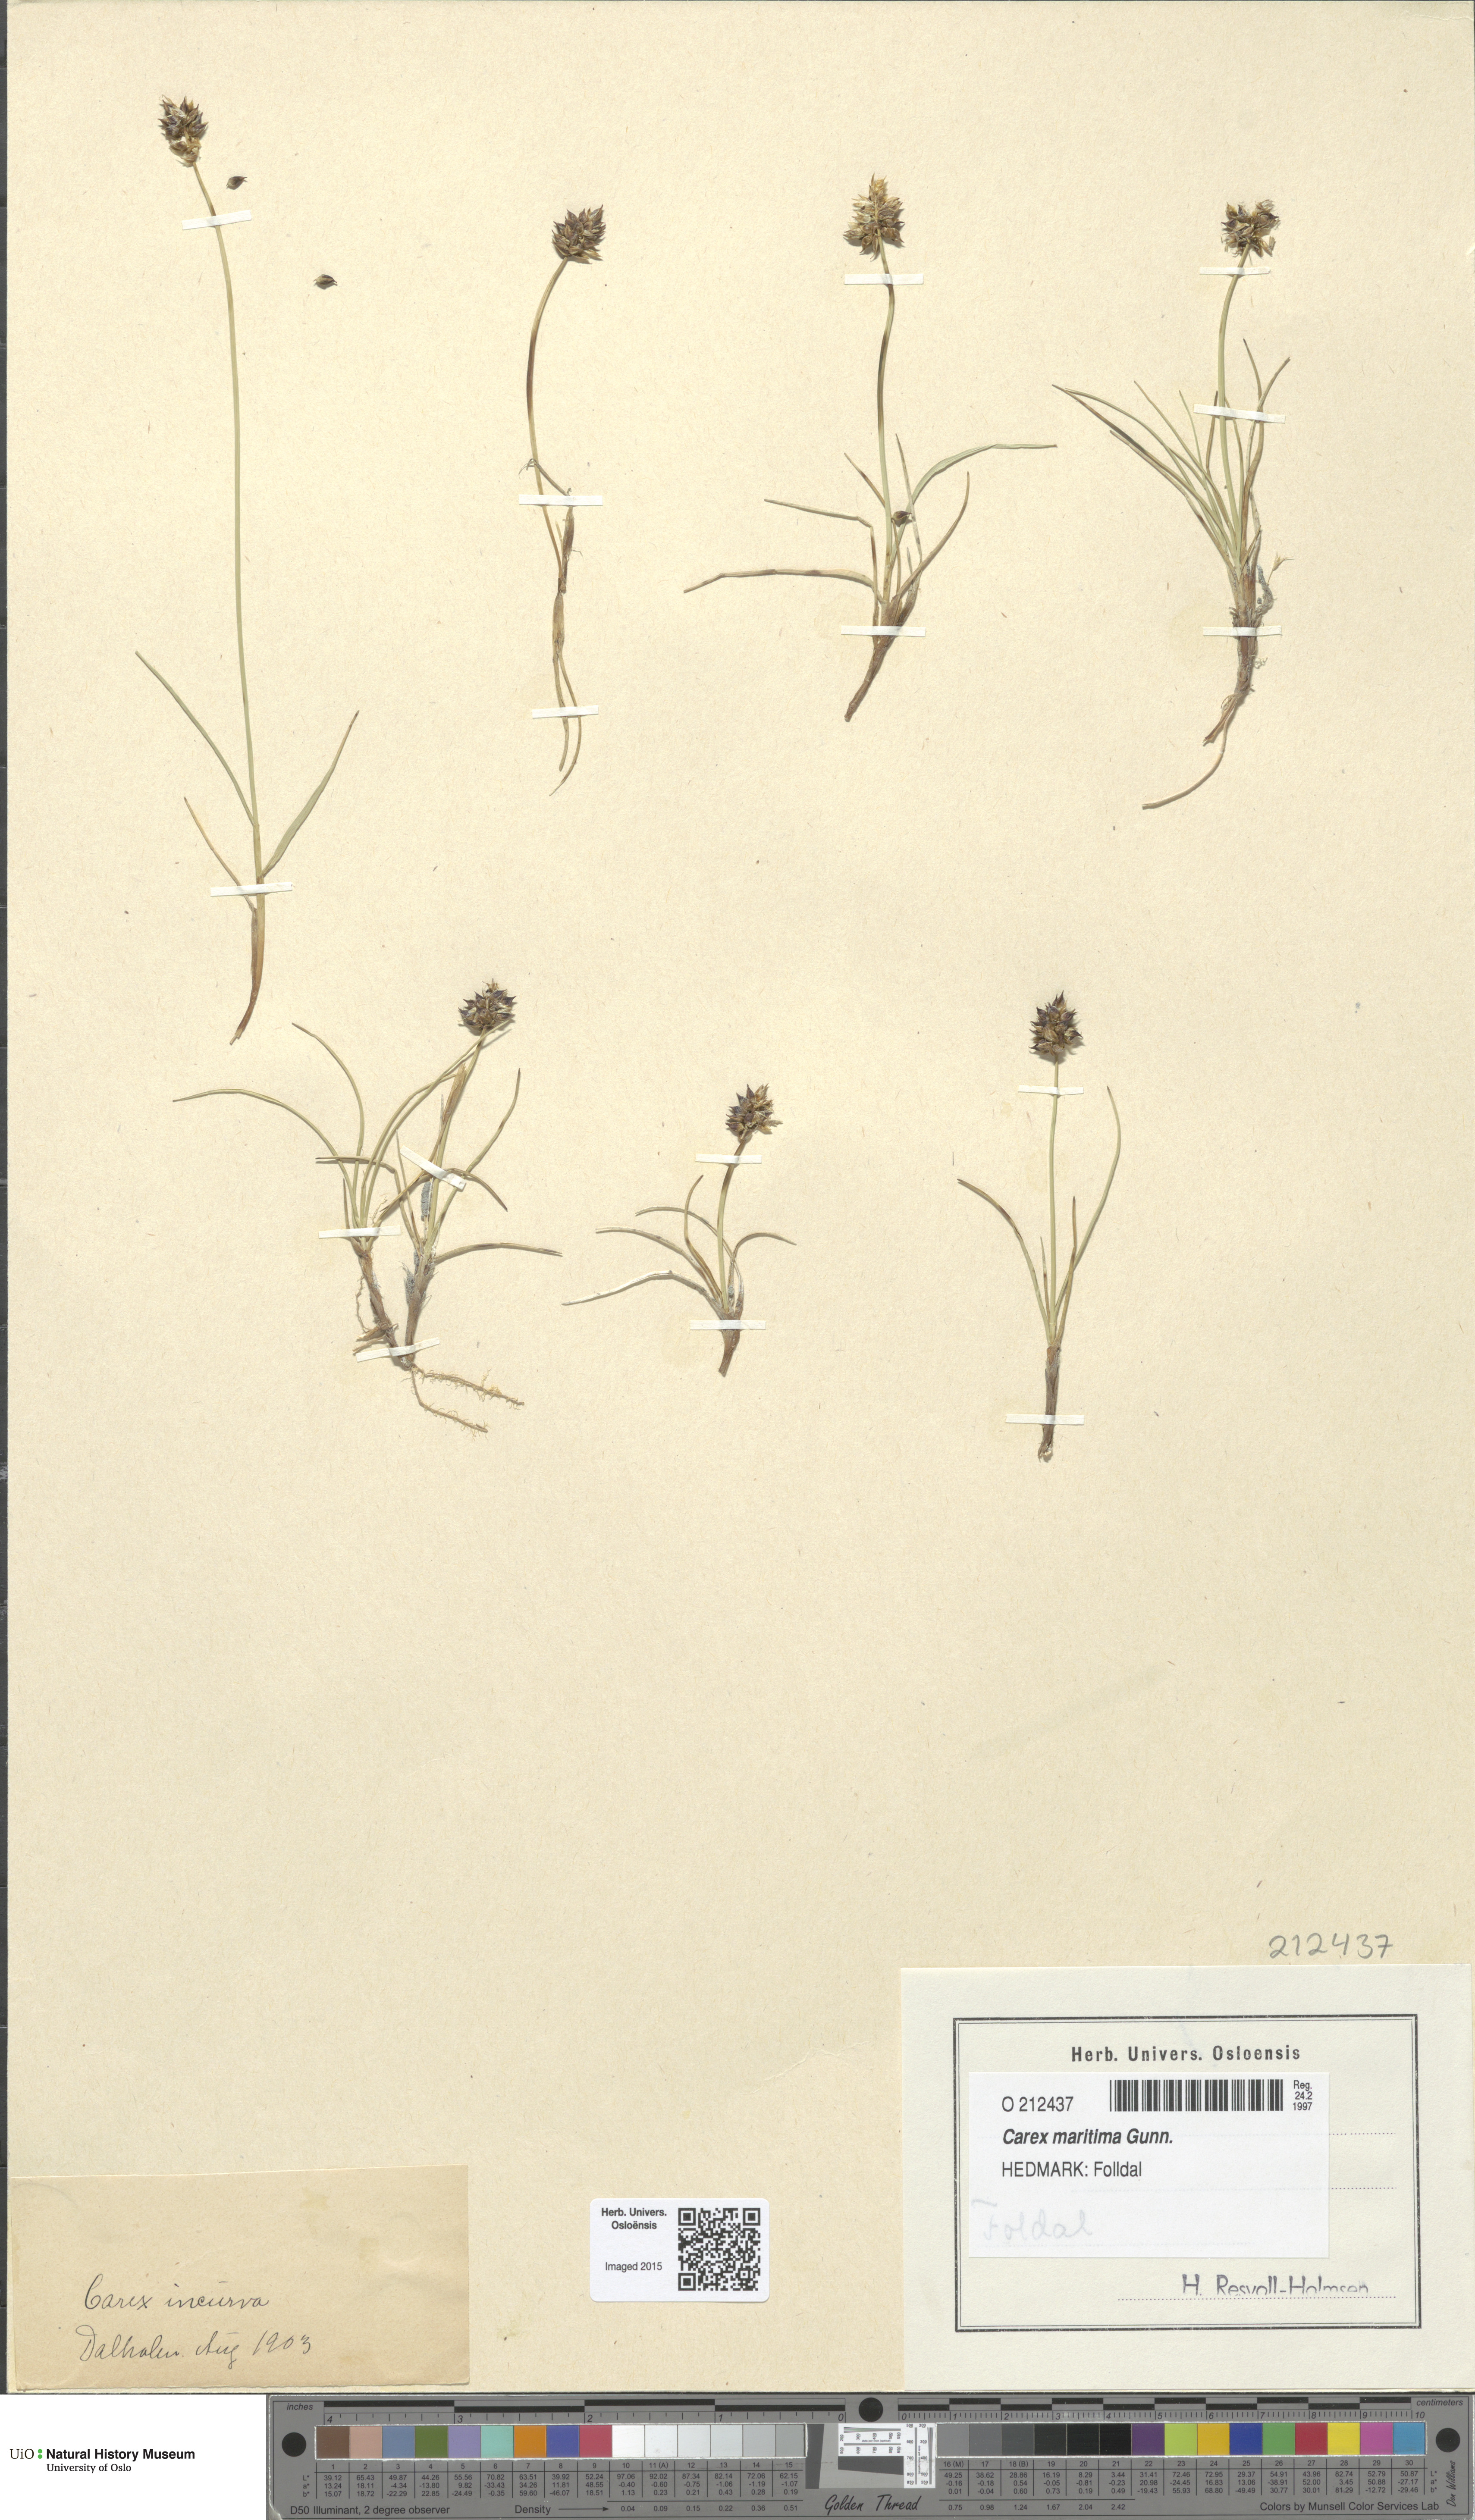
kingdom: Plantae
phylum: Tracheophyta
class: Liliopsida
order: Poales
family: Cyperaceae
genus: Carex
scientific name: Carex maritima
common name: Curved sedge
